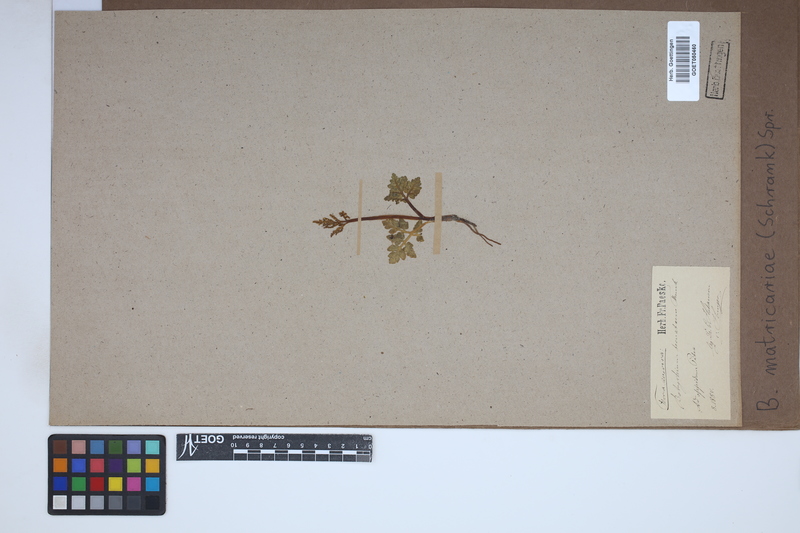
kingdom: Plantae
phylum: Tracheophyta
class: Polypodiopsida
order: Ophioglossales
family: Ophioglossaceae
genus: Sceptridium
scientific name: Sceptridium multifidum
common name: Leathery grape fern
